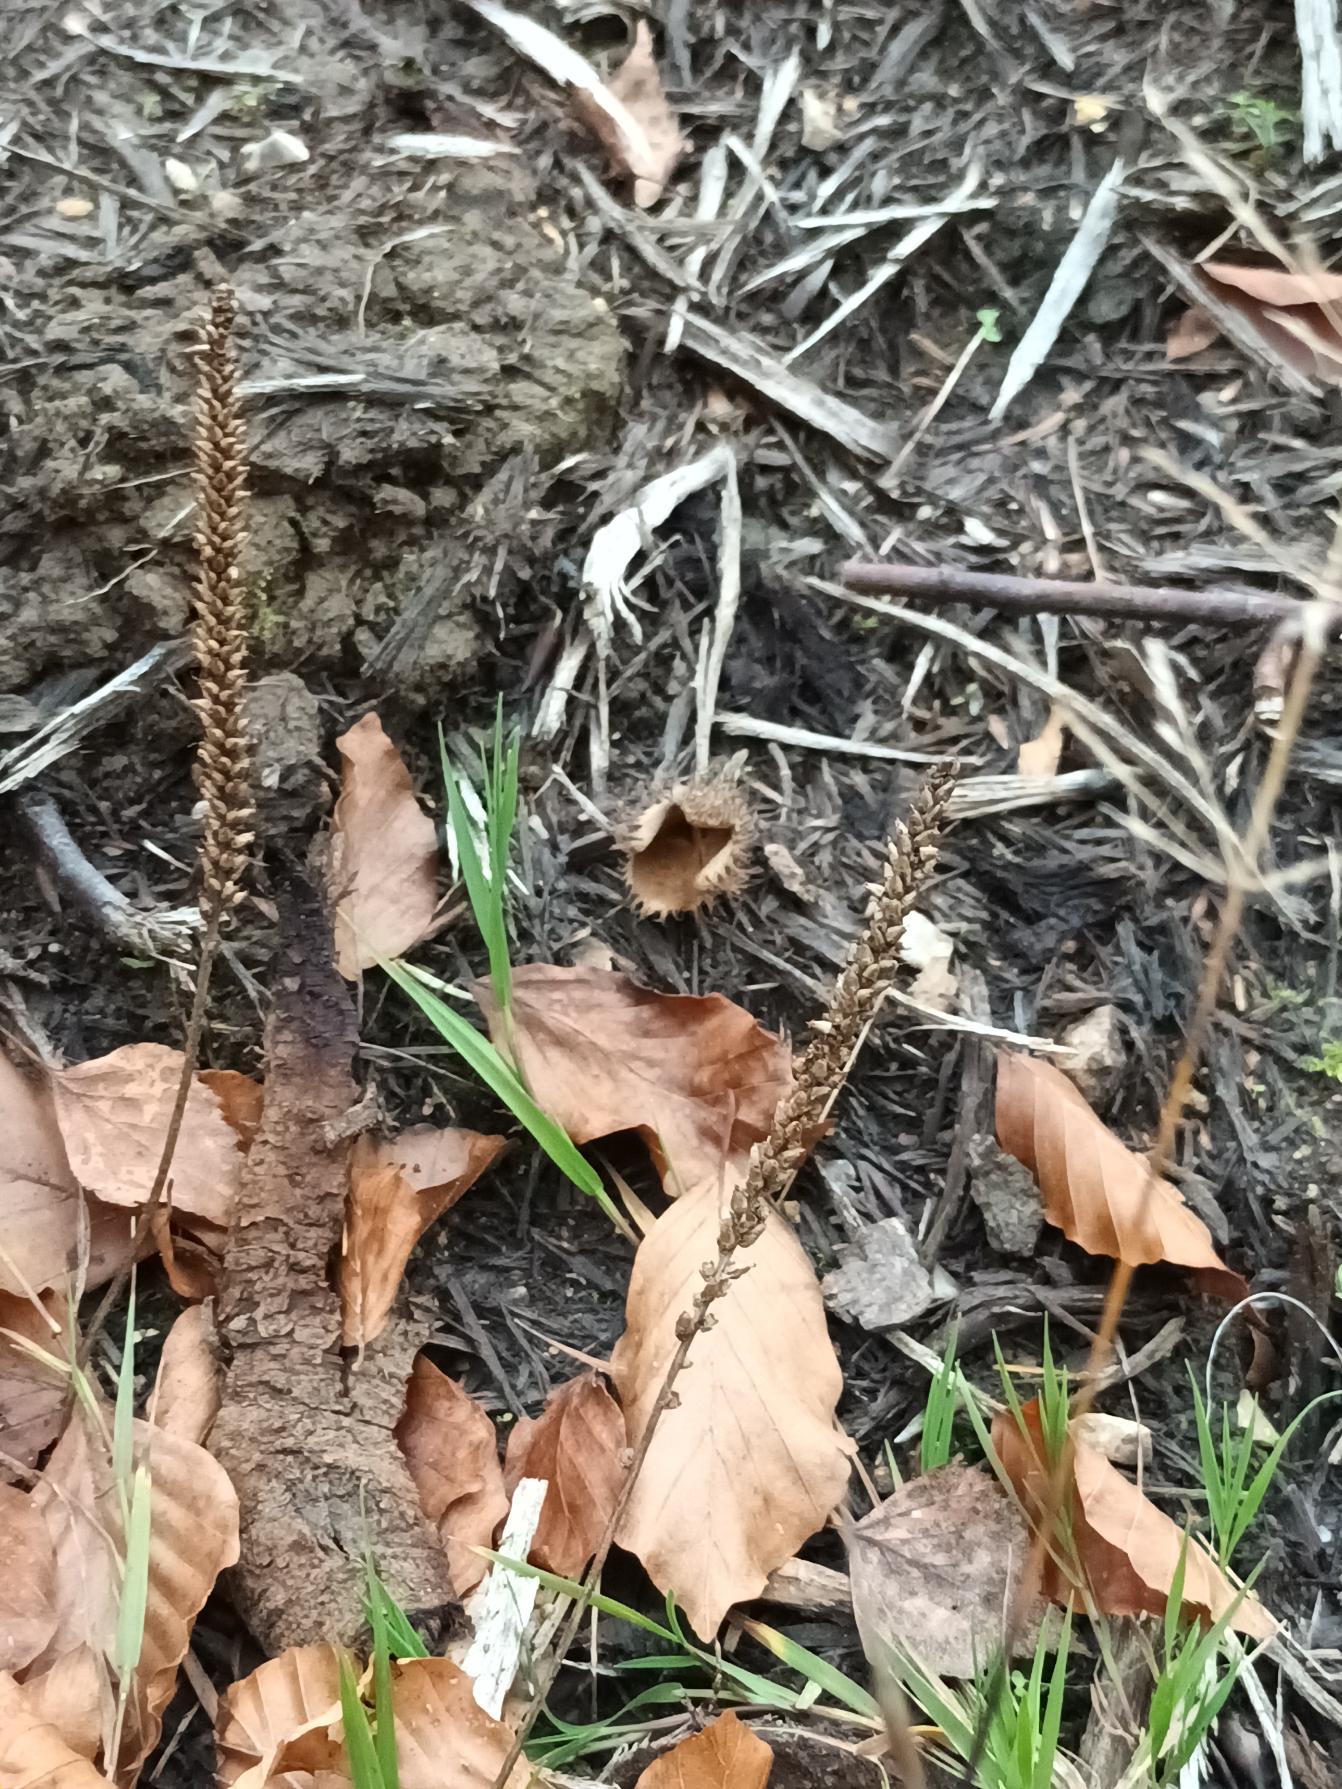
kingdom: Plantae
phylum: Tracheophyta
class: Magnoliopsida
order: Lamiales
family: Plantaginaceae
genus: Plantago
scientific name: Plantago major
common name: Glat vejbred
